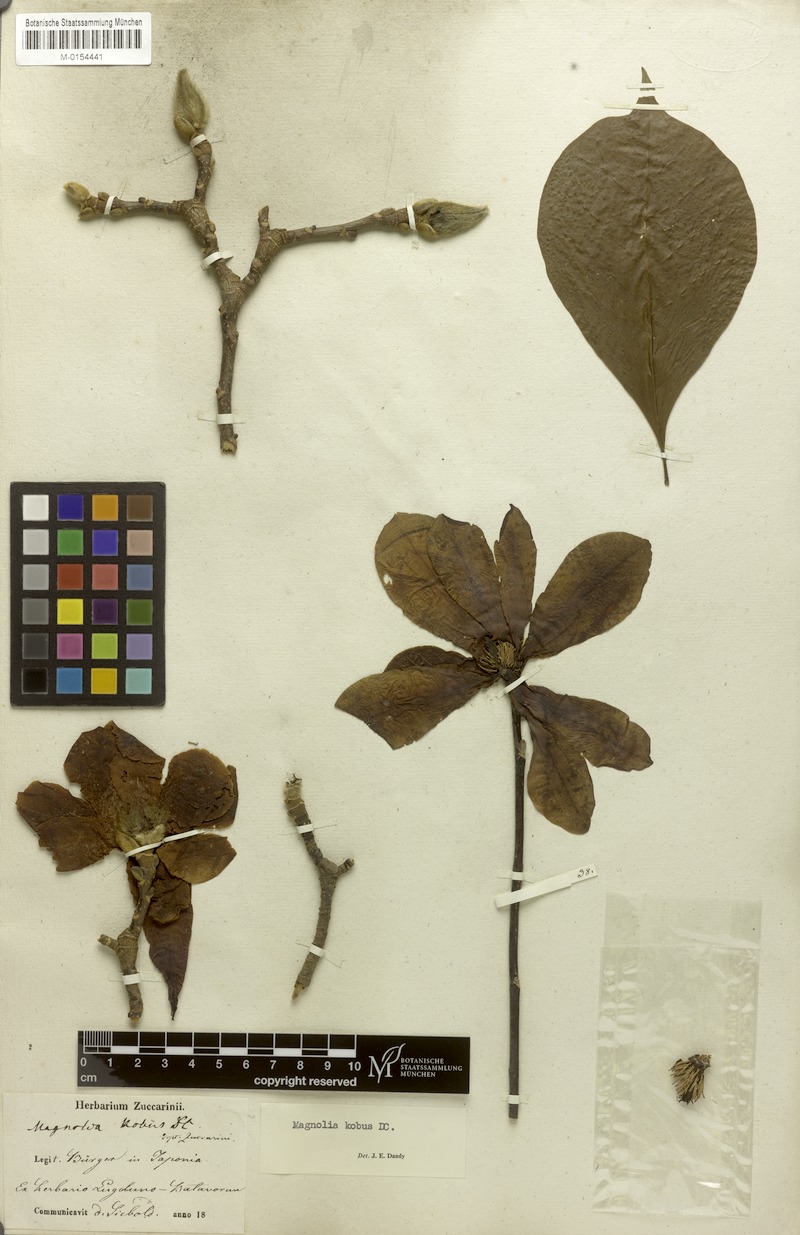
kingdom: Plantae
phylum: Tracheophyta
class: Magnoliopsida
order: Magnoliales
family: Magnoliaceae
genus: Magnolia
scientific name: Magnolia kobus
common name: Kobus magnolia
